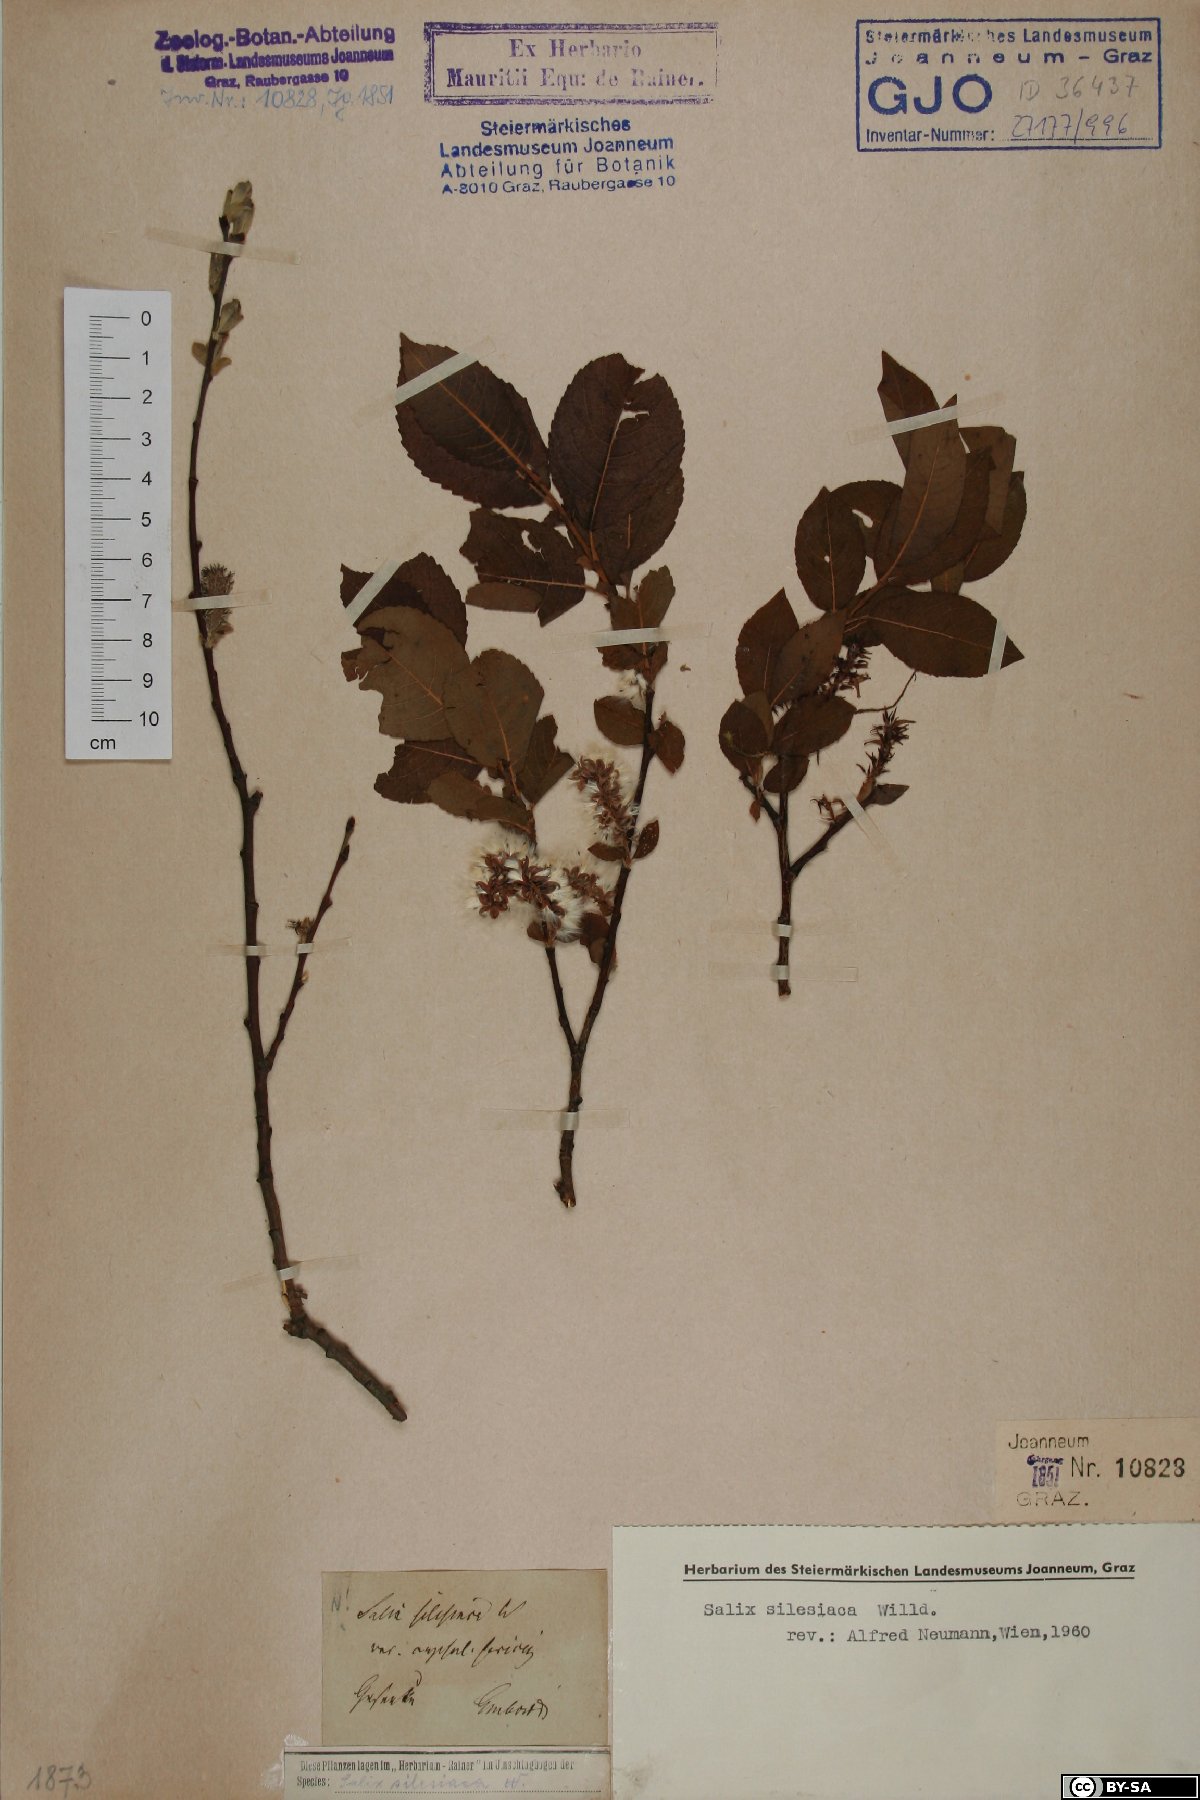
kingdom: Plantae
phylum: Tracheophyta
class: Magnoliopsida
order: Malpighiales
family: Salicaceae
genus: Salix
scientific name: Salix silesiaca
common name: Silesian willow
